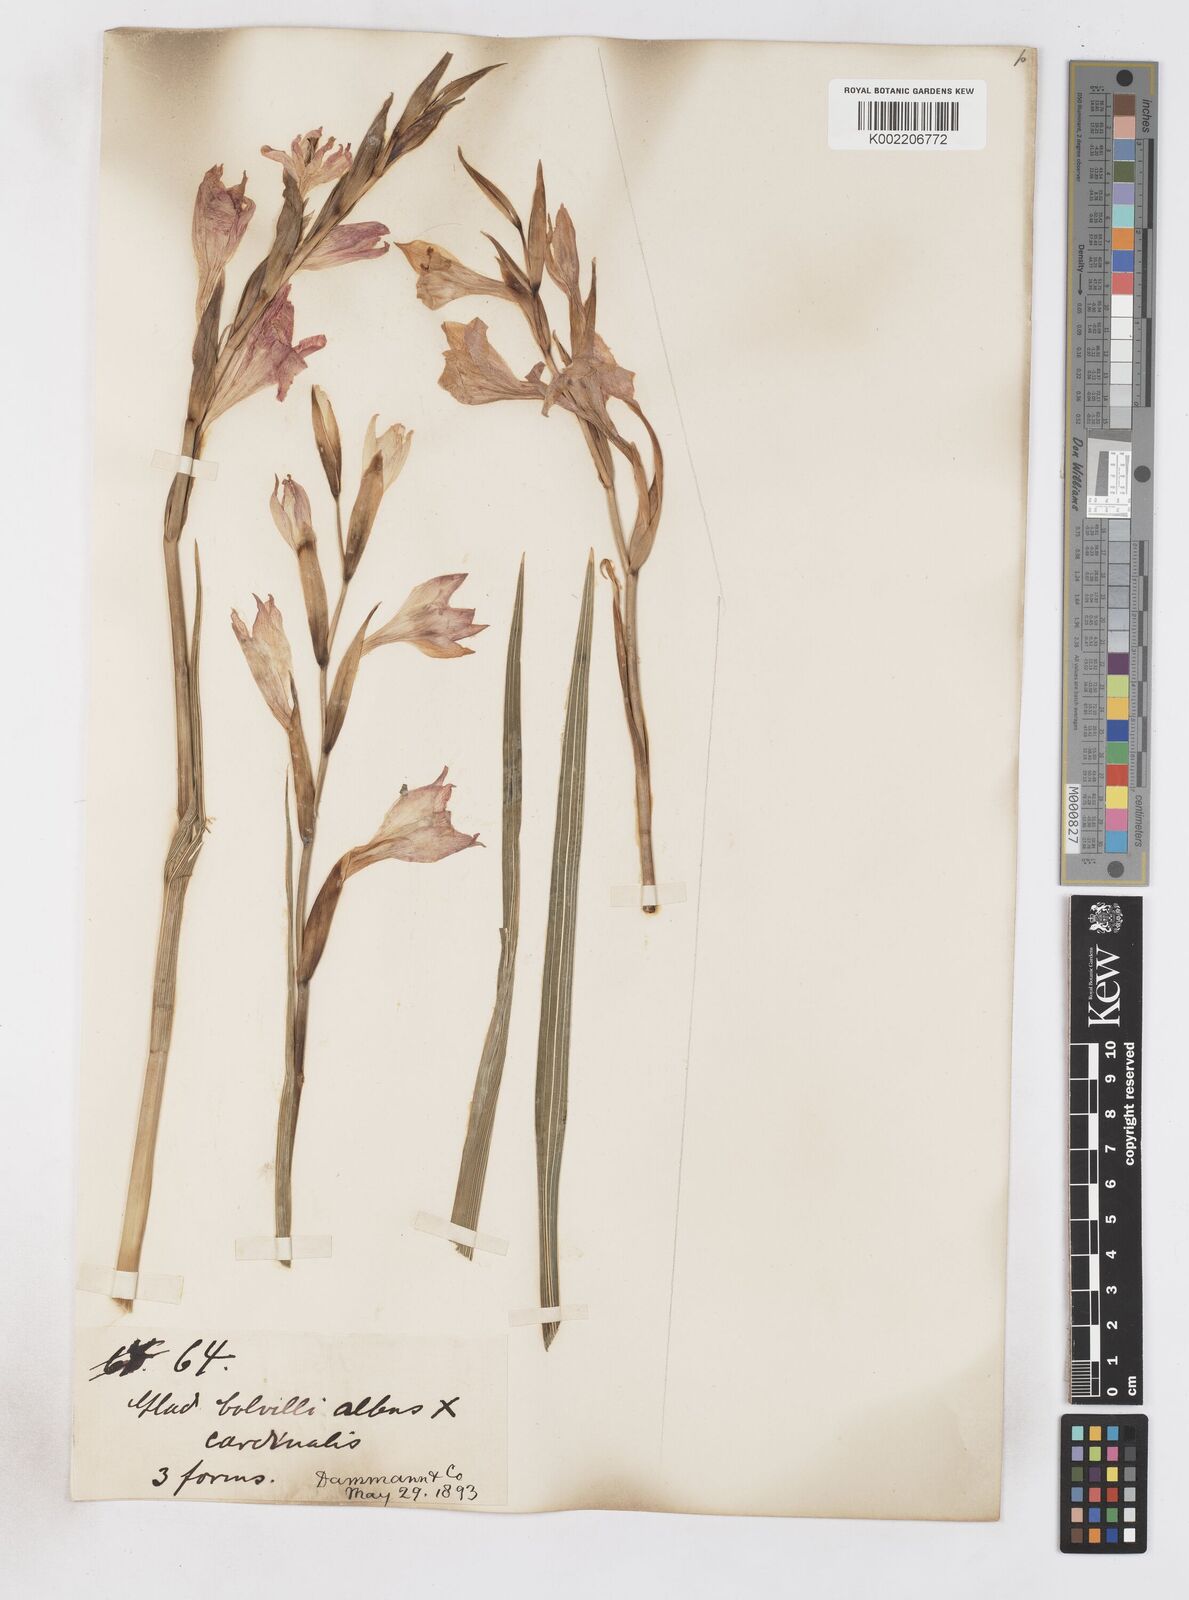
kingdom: Plantae
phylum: Tracheophyta
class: Liliopsida
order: Asparagales
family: Iridaceae
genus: Gladiolus
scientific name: Gladiolus communis
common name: Eastern gladiolus
